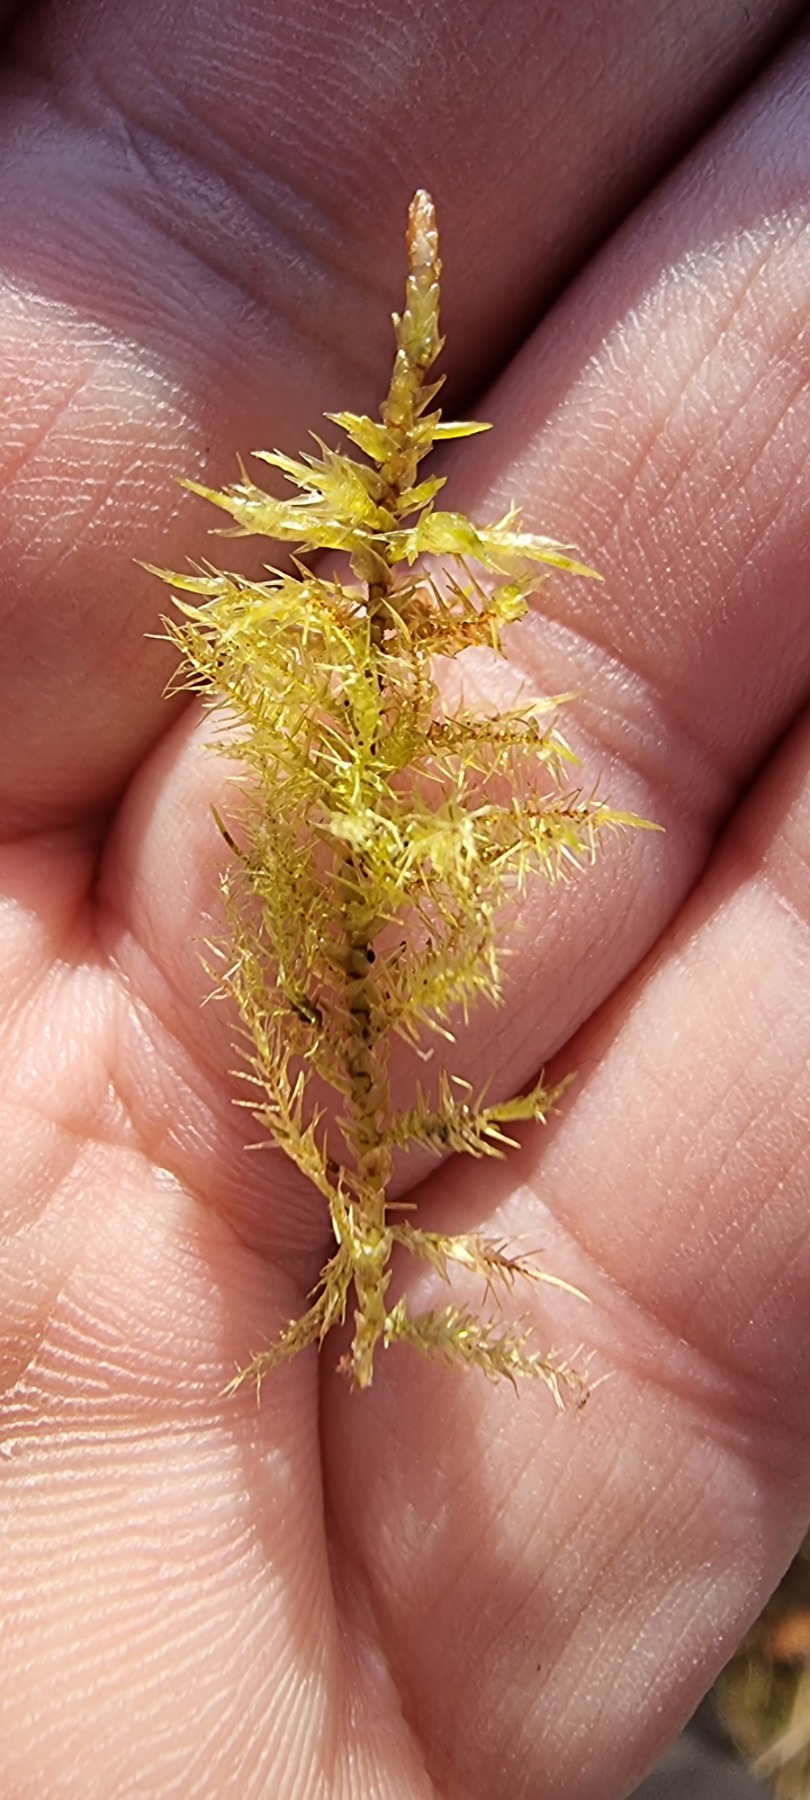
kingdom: Plantae
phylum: Bryophyta
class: Bryopsida
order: Hypnales
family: Calliergonaceae
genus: Calliergon
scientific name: Calliergon giganteum
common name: Stor skebladsmos
